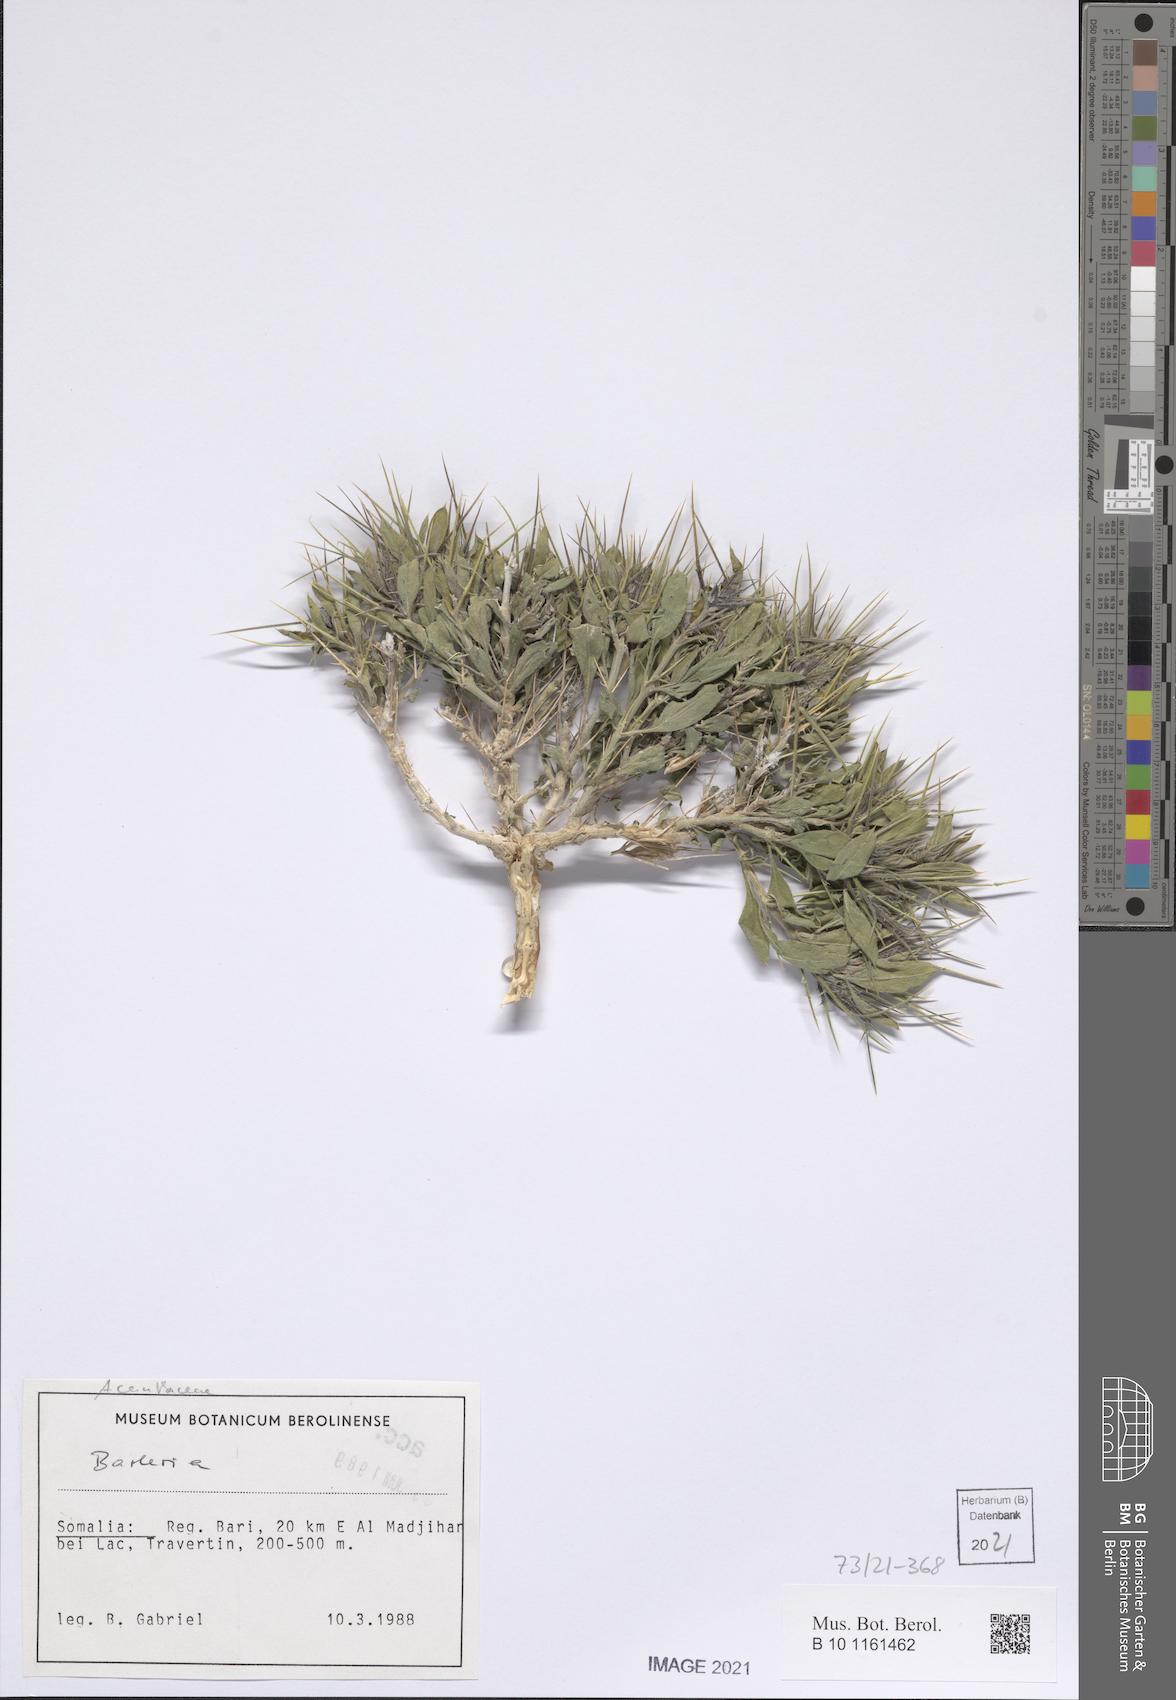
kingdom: Plantae
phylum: Tracheophyta
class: Magnoliopsida
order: Lamiales
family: Acanthaceae
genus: Barleria
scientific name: Barleria paolii
